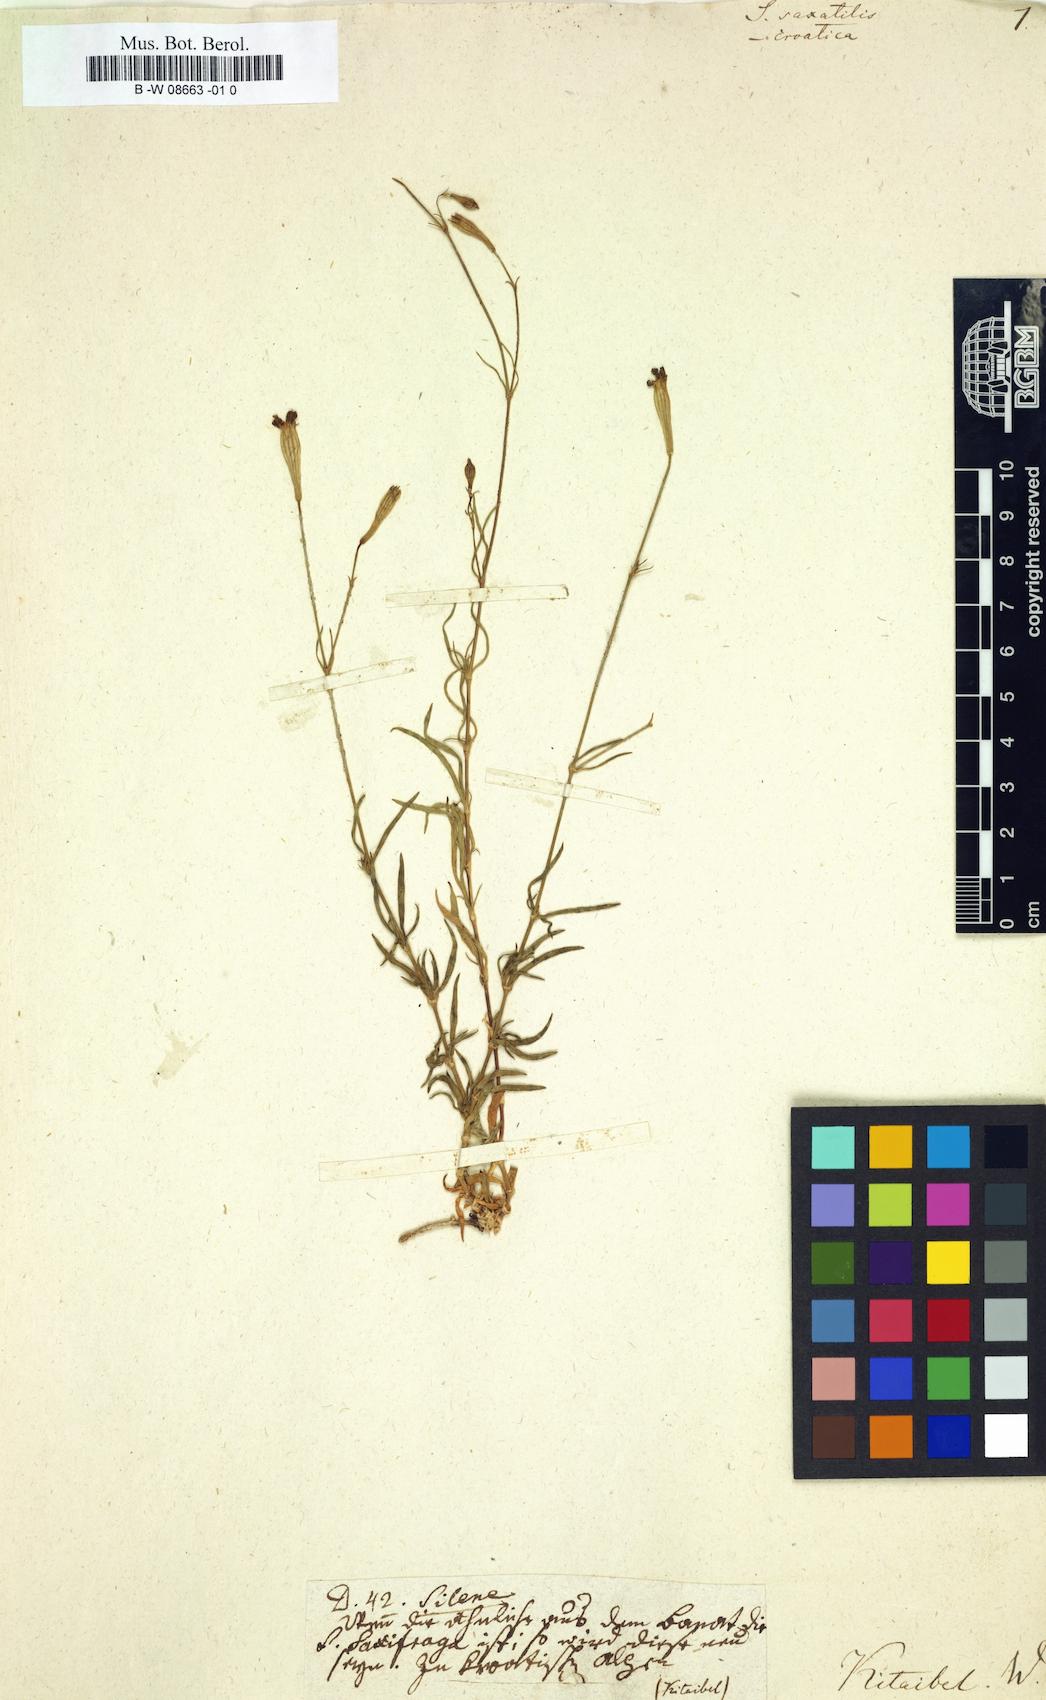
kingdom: Plantae
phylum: Tracheophyta
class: Magnoliopsida
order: Caryophyllales
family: Caryophyllaceae
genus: Silene
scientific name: Silene saxatilis
